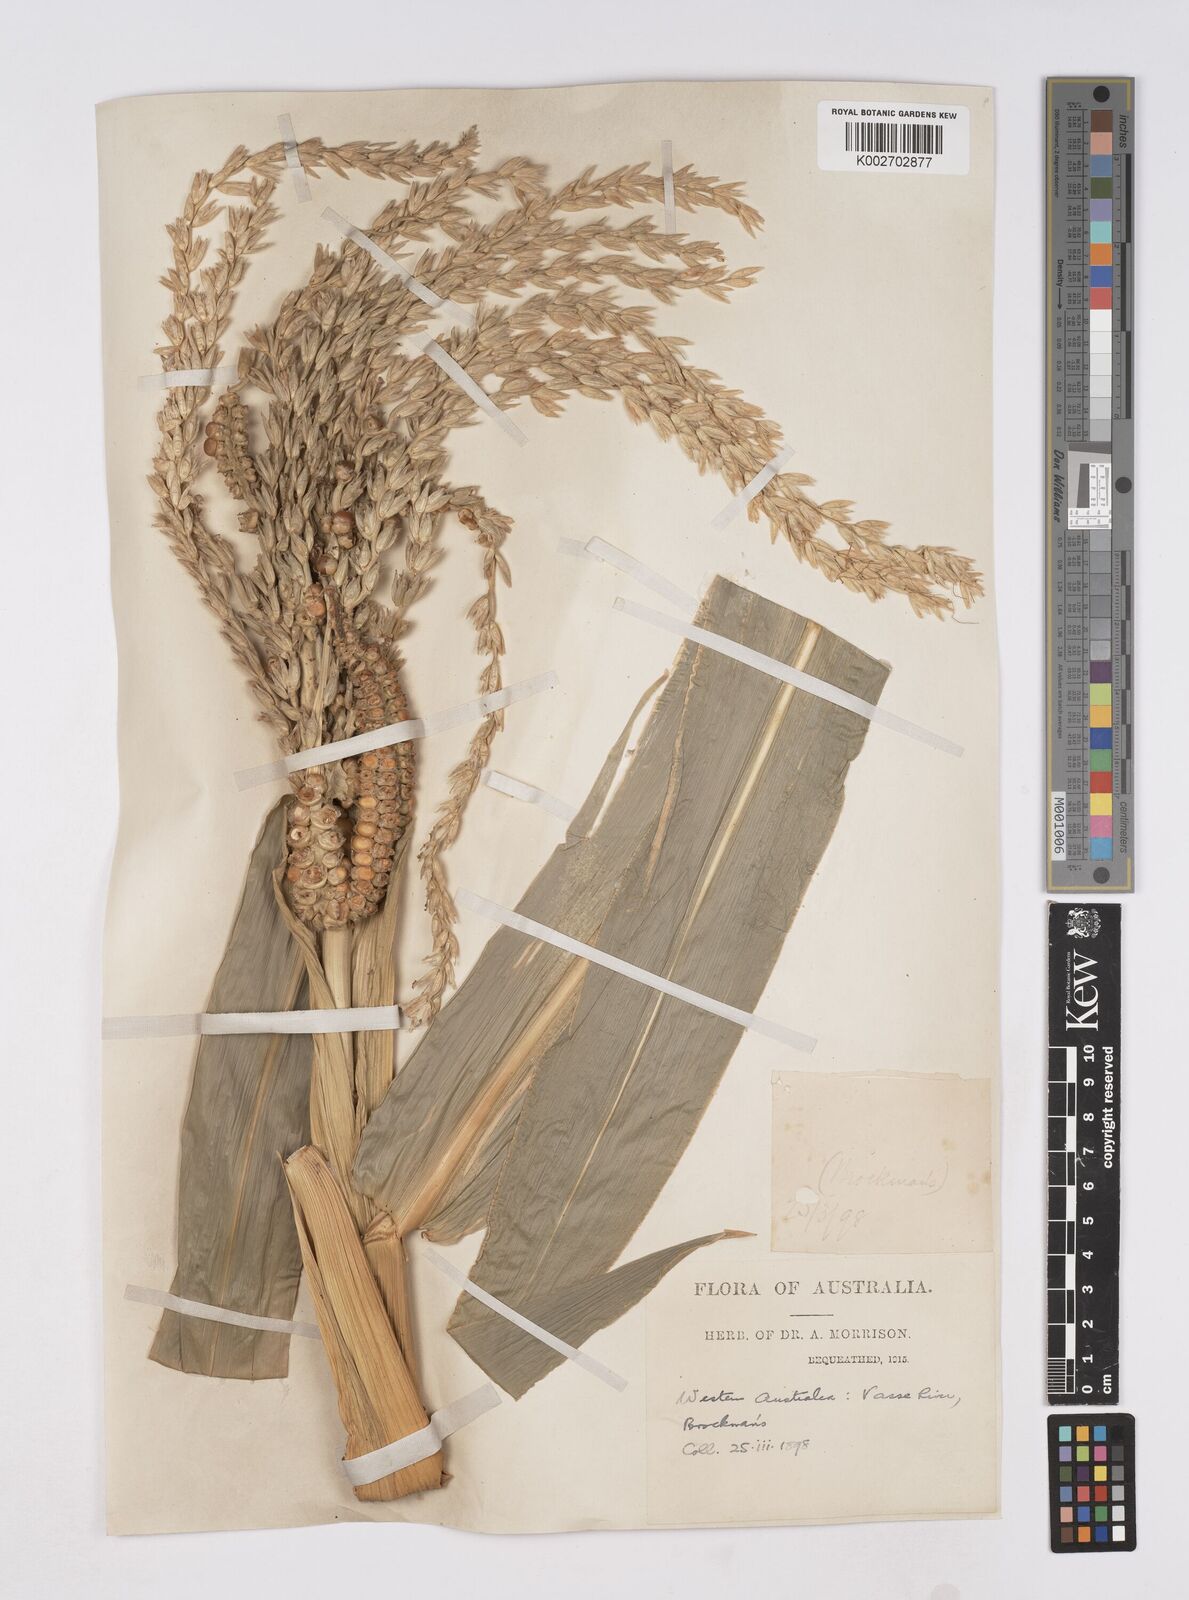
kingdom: Plantae
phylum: Tracheophyta
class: Liliopsida
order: Poales
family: Poaceae
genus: Zea
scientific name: Zea mays
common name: Maize
